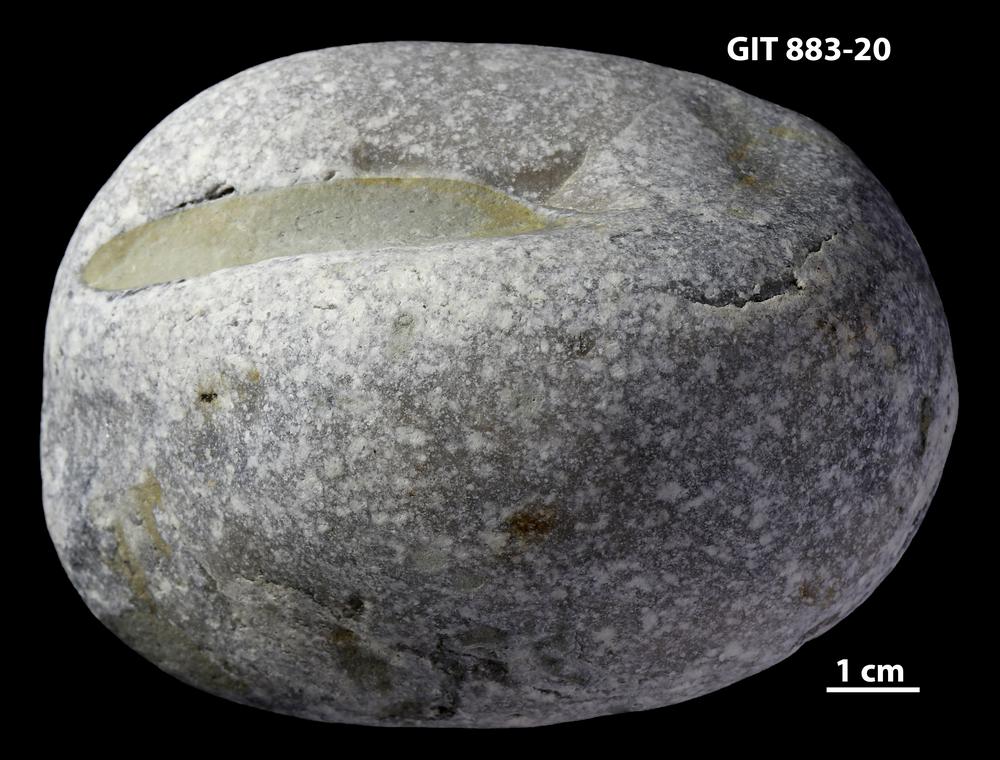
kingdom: Animalia
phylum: Porifera
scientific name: Porifera
